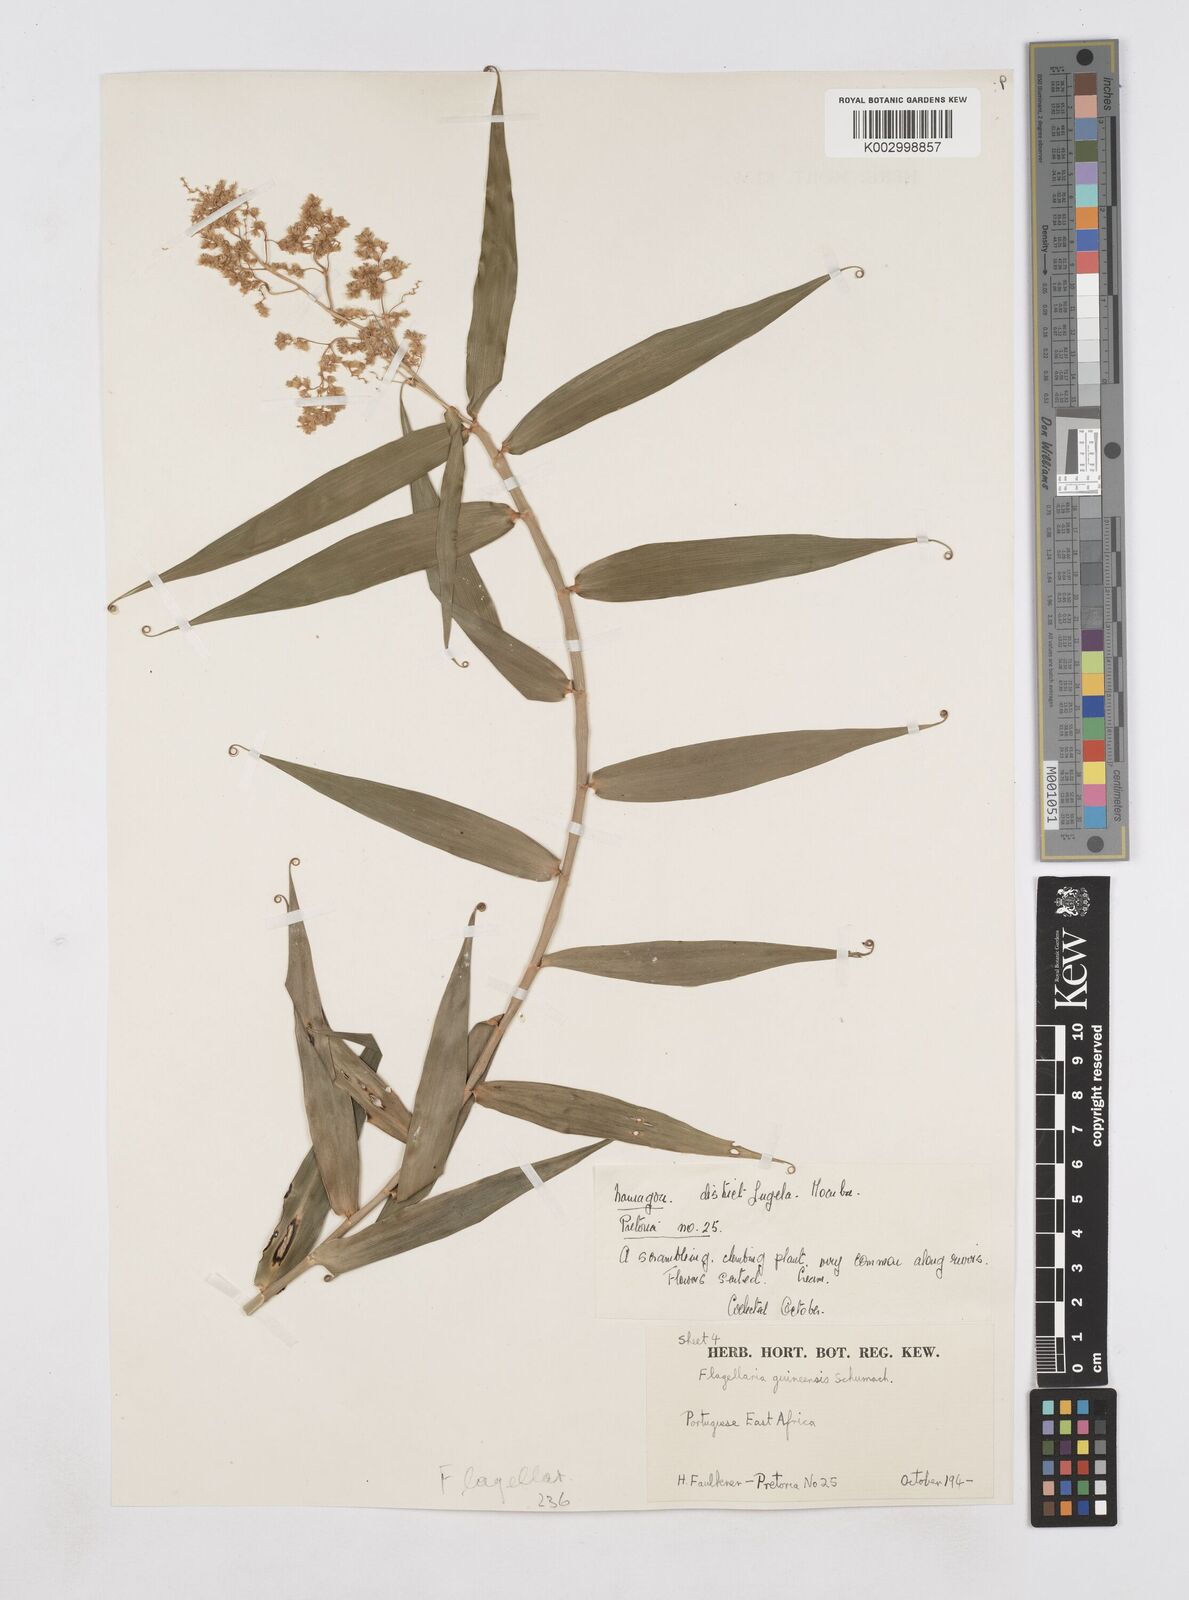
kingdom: Plantae
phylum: Tracheophyta
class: Liliopsida
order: Poales
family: Flagellariaceae
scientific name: Flagellariaceae
